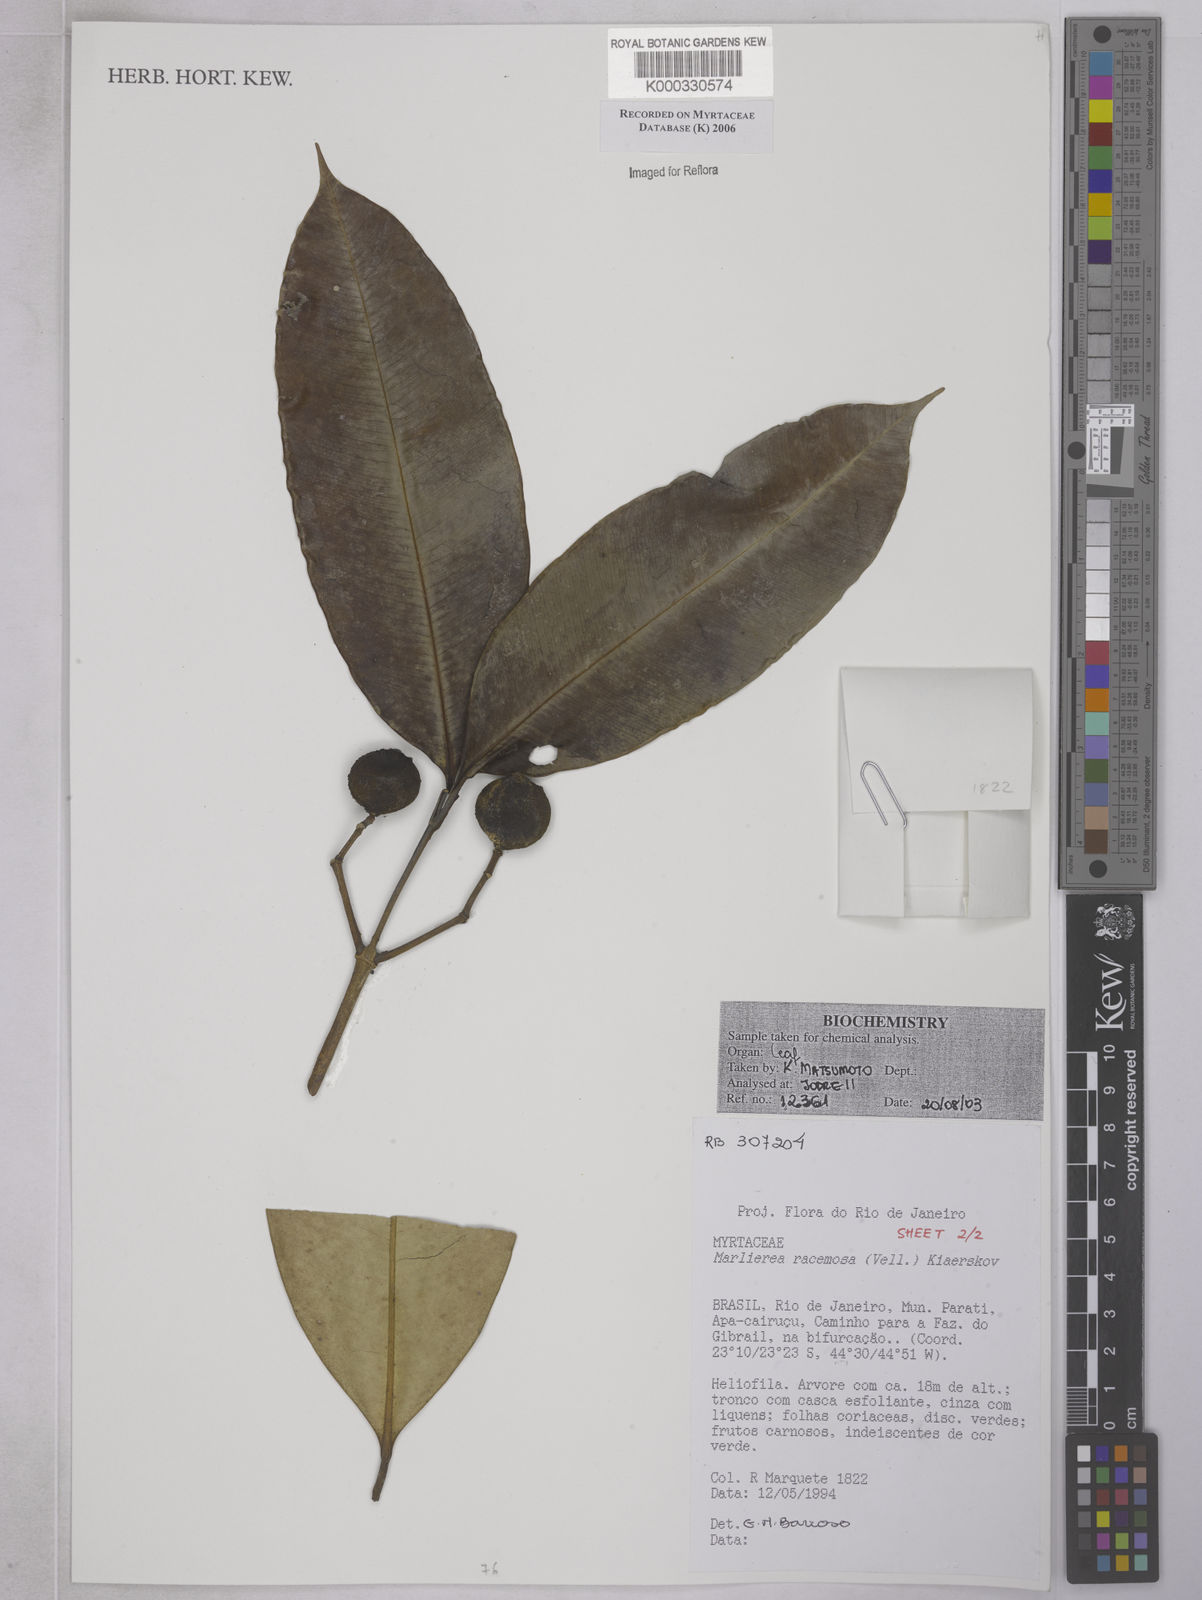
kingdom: Plantae
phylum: Tracheophyta
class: Magnoliopsida
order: Myrtales
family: Myrtaceae
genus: Myrcia
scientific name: Myrcia vellozoi
